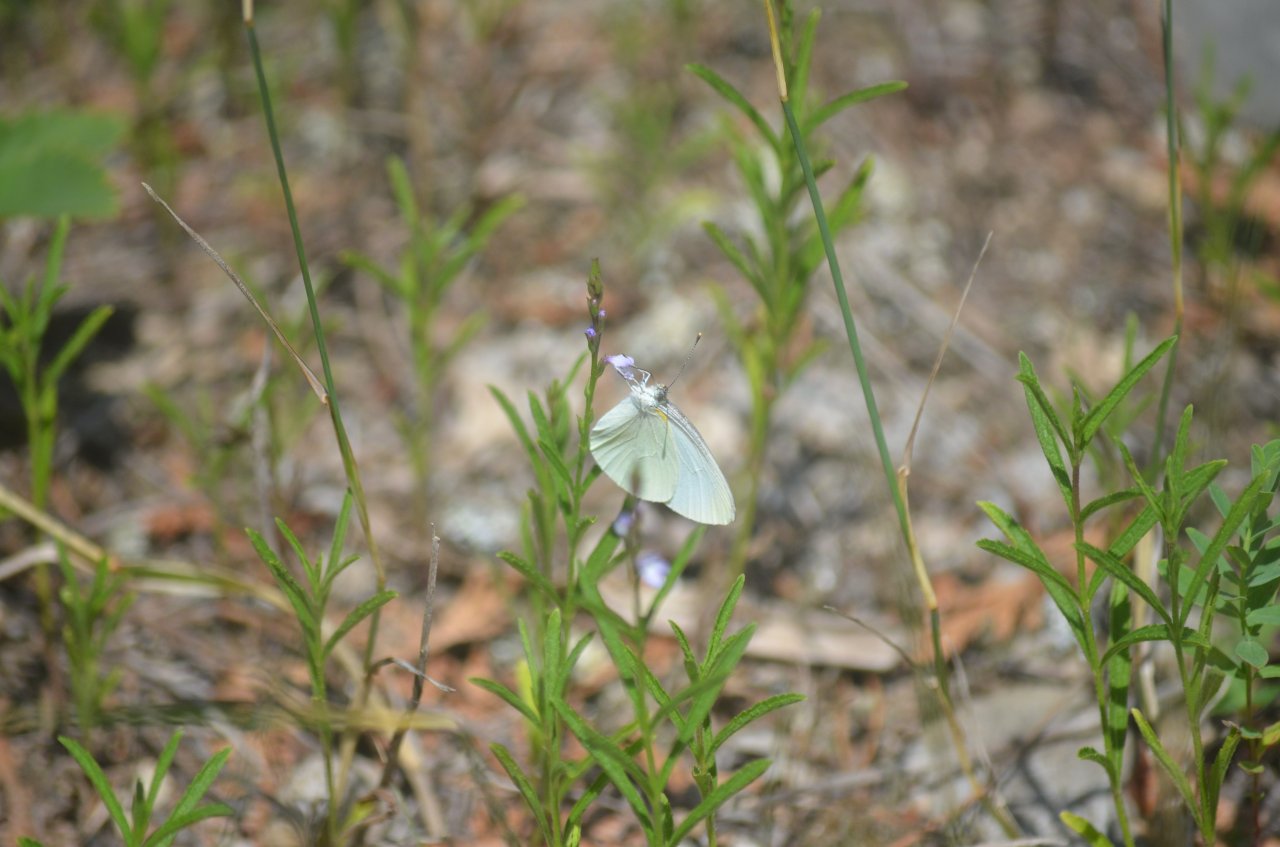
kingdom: Animalia
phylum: Arthropoda
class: Insecta
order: Lepidoptera
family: Pieridae
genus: Pieris
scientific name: Pieris oleracea
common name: Mustard White
